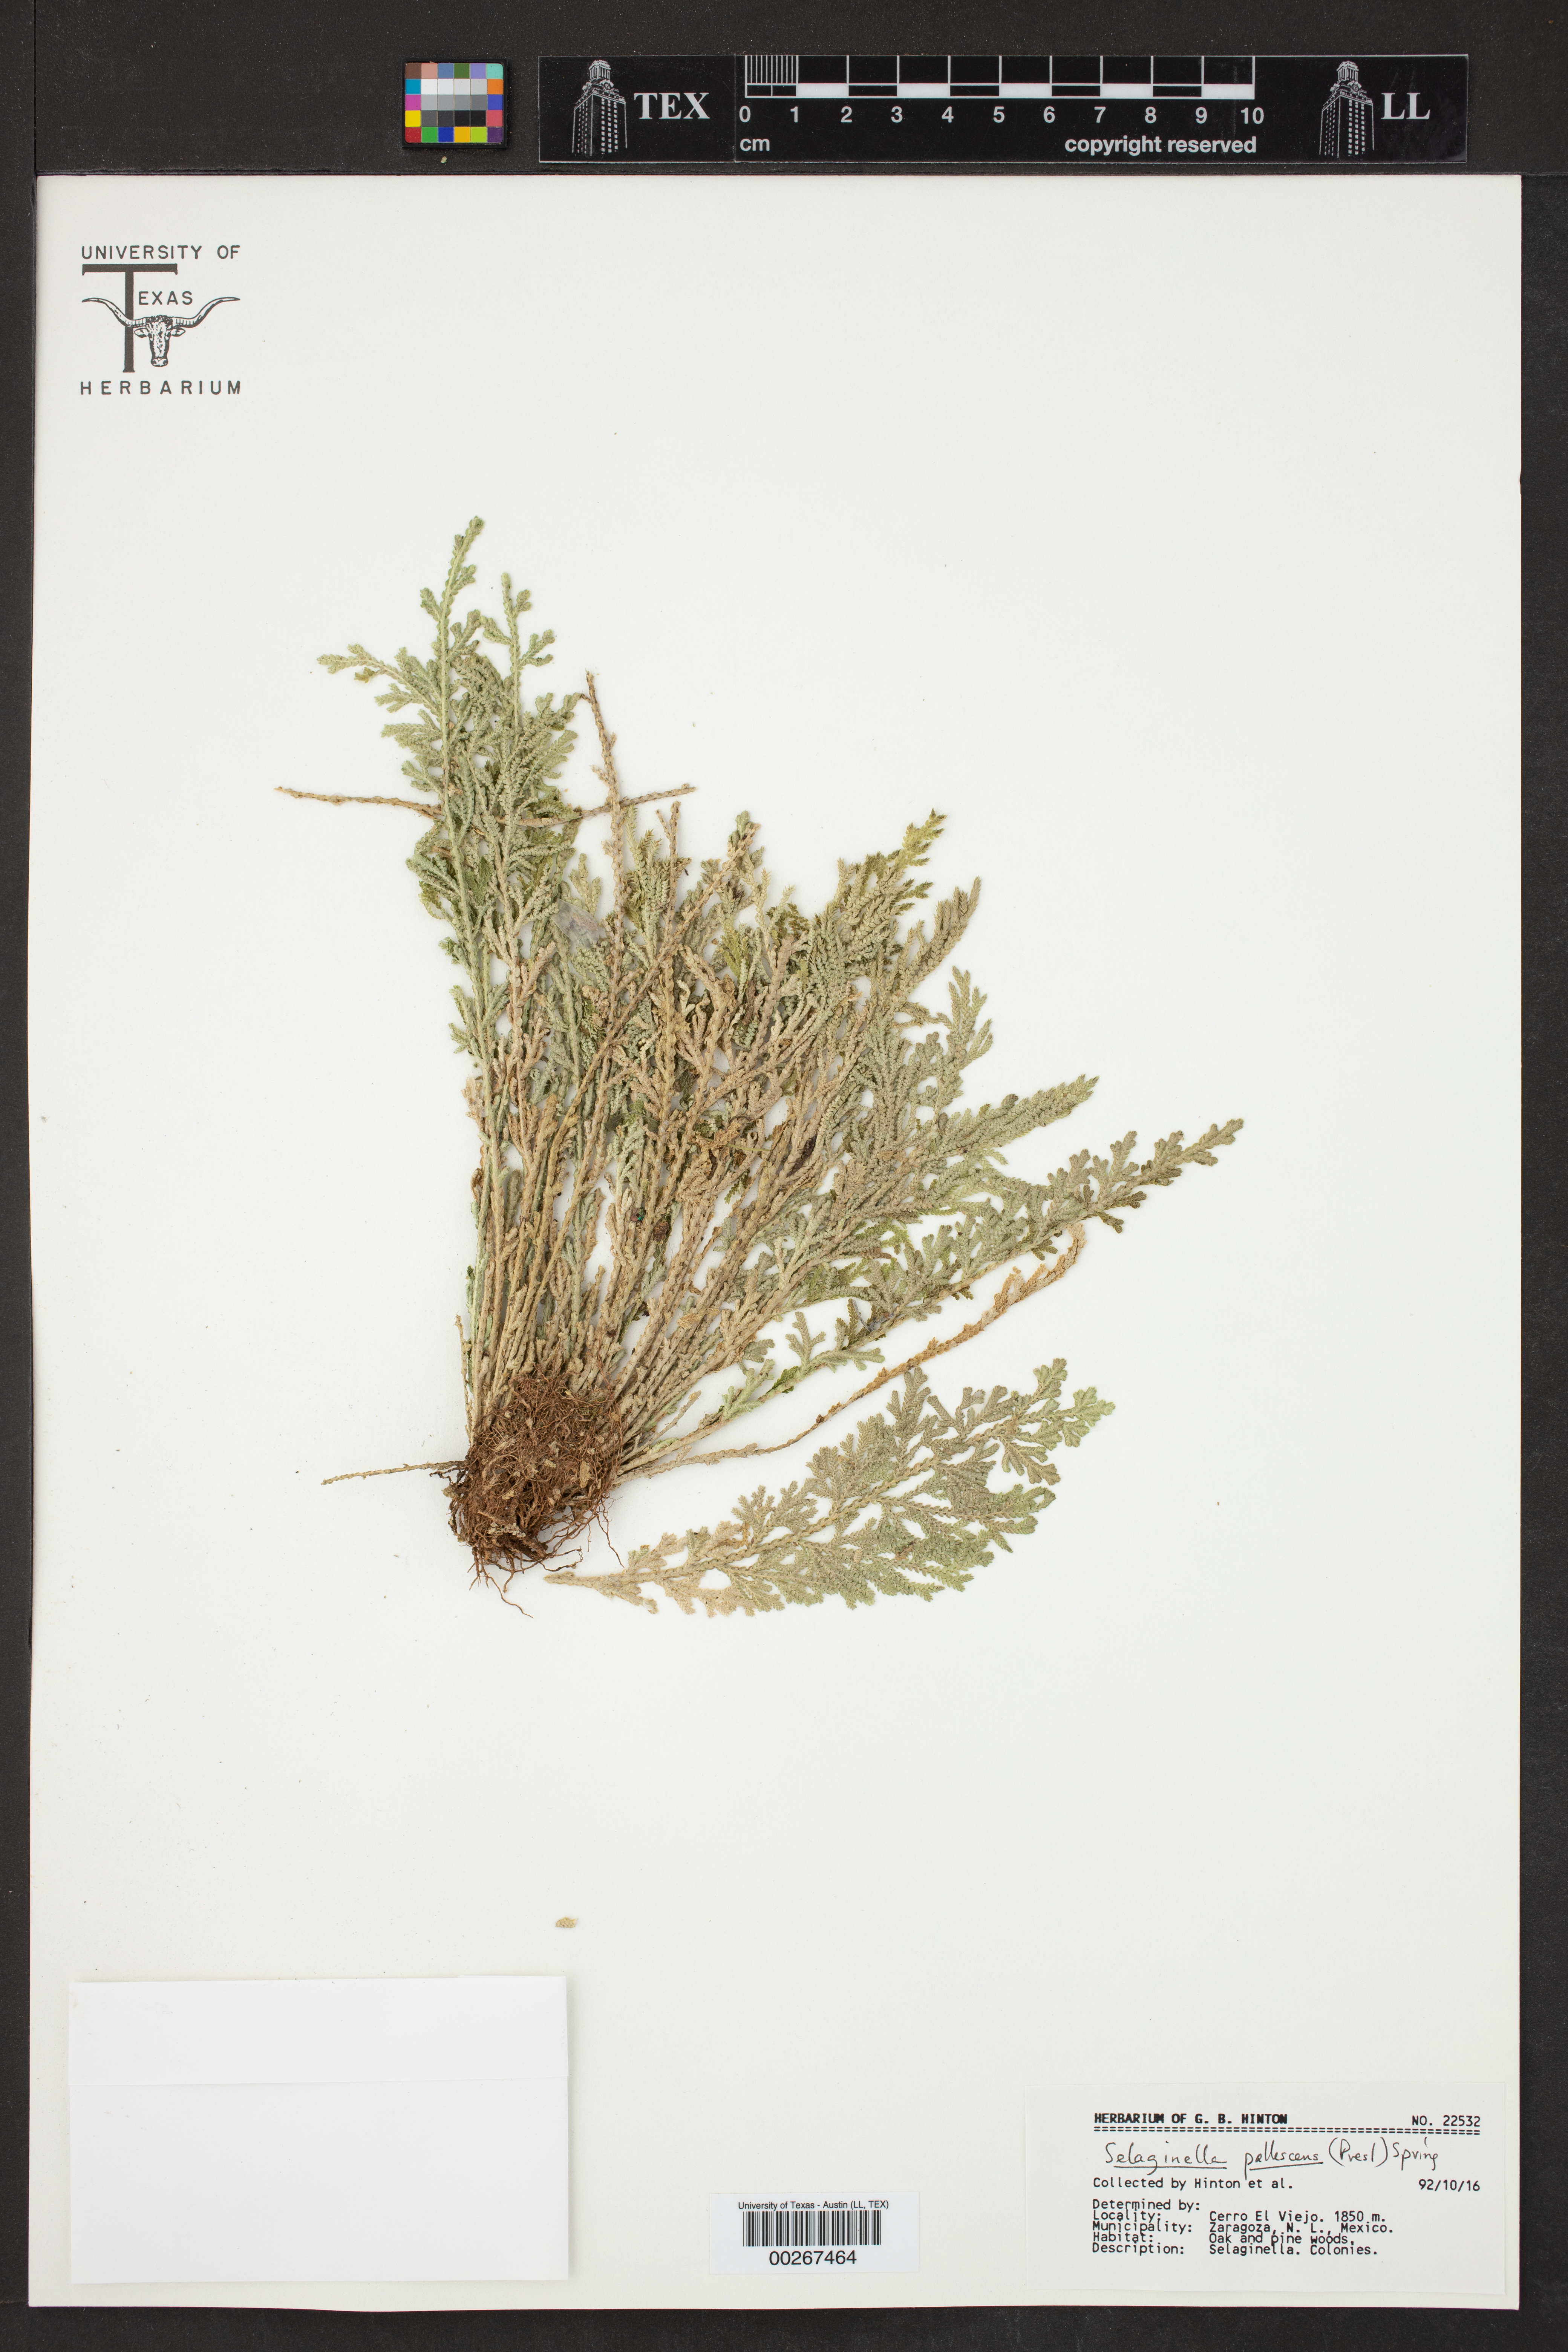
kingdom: Plantae
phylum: Tracheophyta
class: Lycopodiopsida
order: Selaginellales
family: Selaginellaceae
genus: Selaginella
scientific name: Selaginella pallescens
